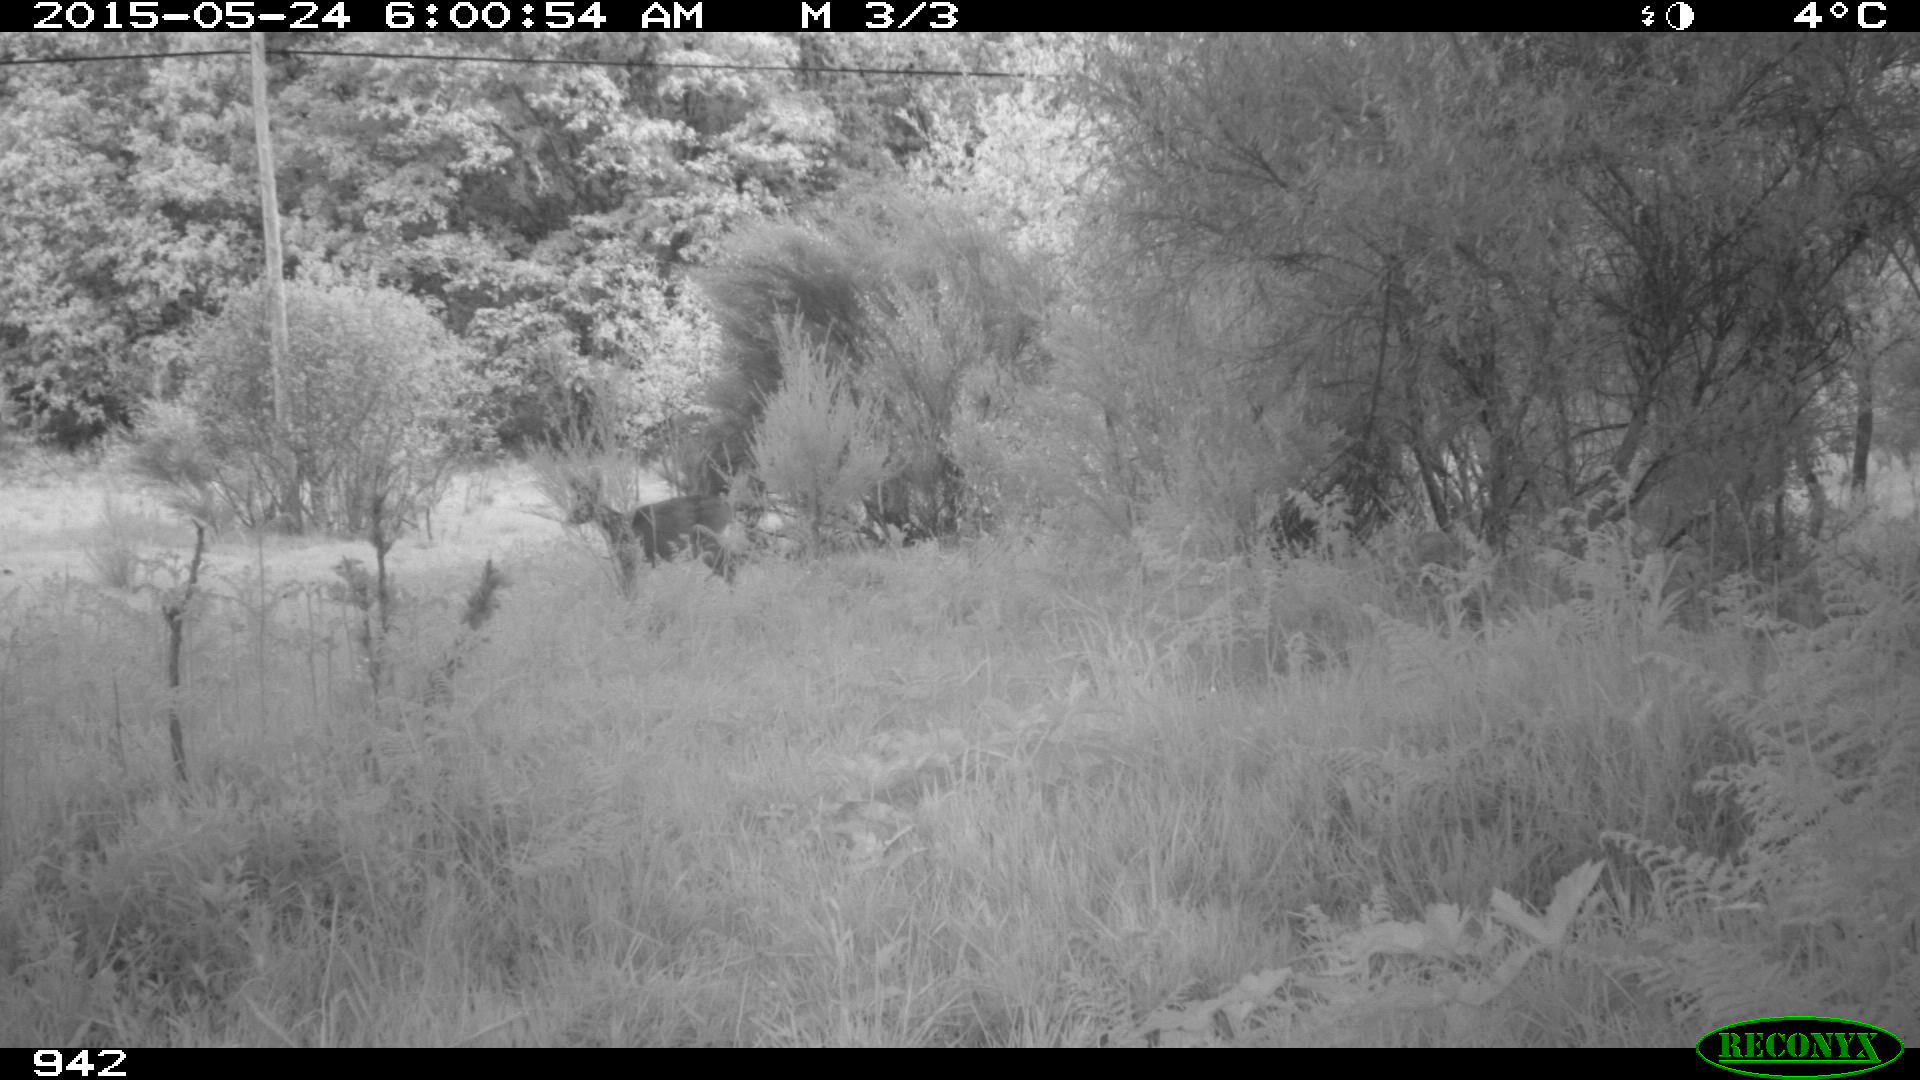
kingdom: Animalia
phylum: Chordata
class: Mammalia
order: Artiodactyla
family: Cervidae
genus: Capreolus
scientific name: Capreolus capreolus
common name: Western roe deer
